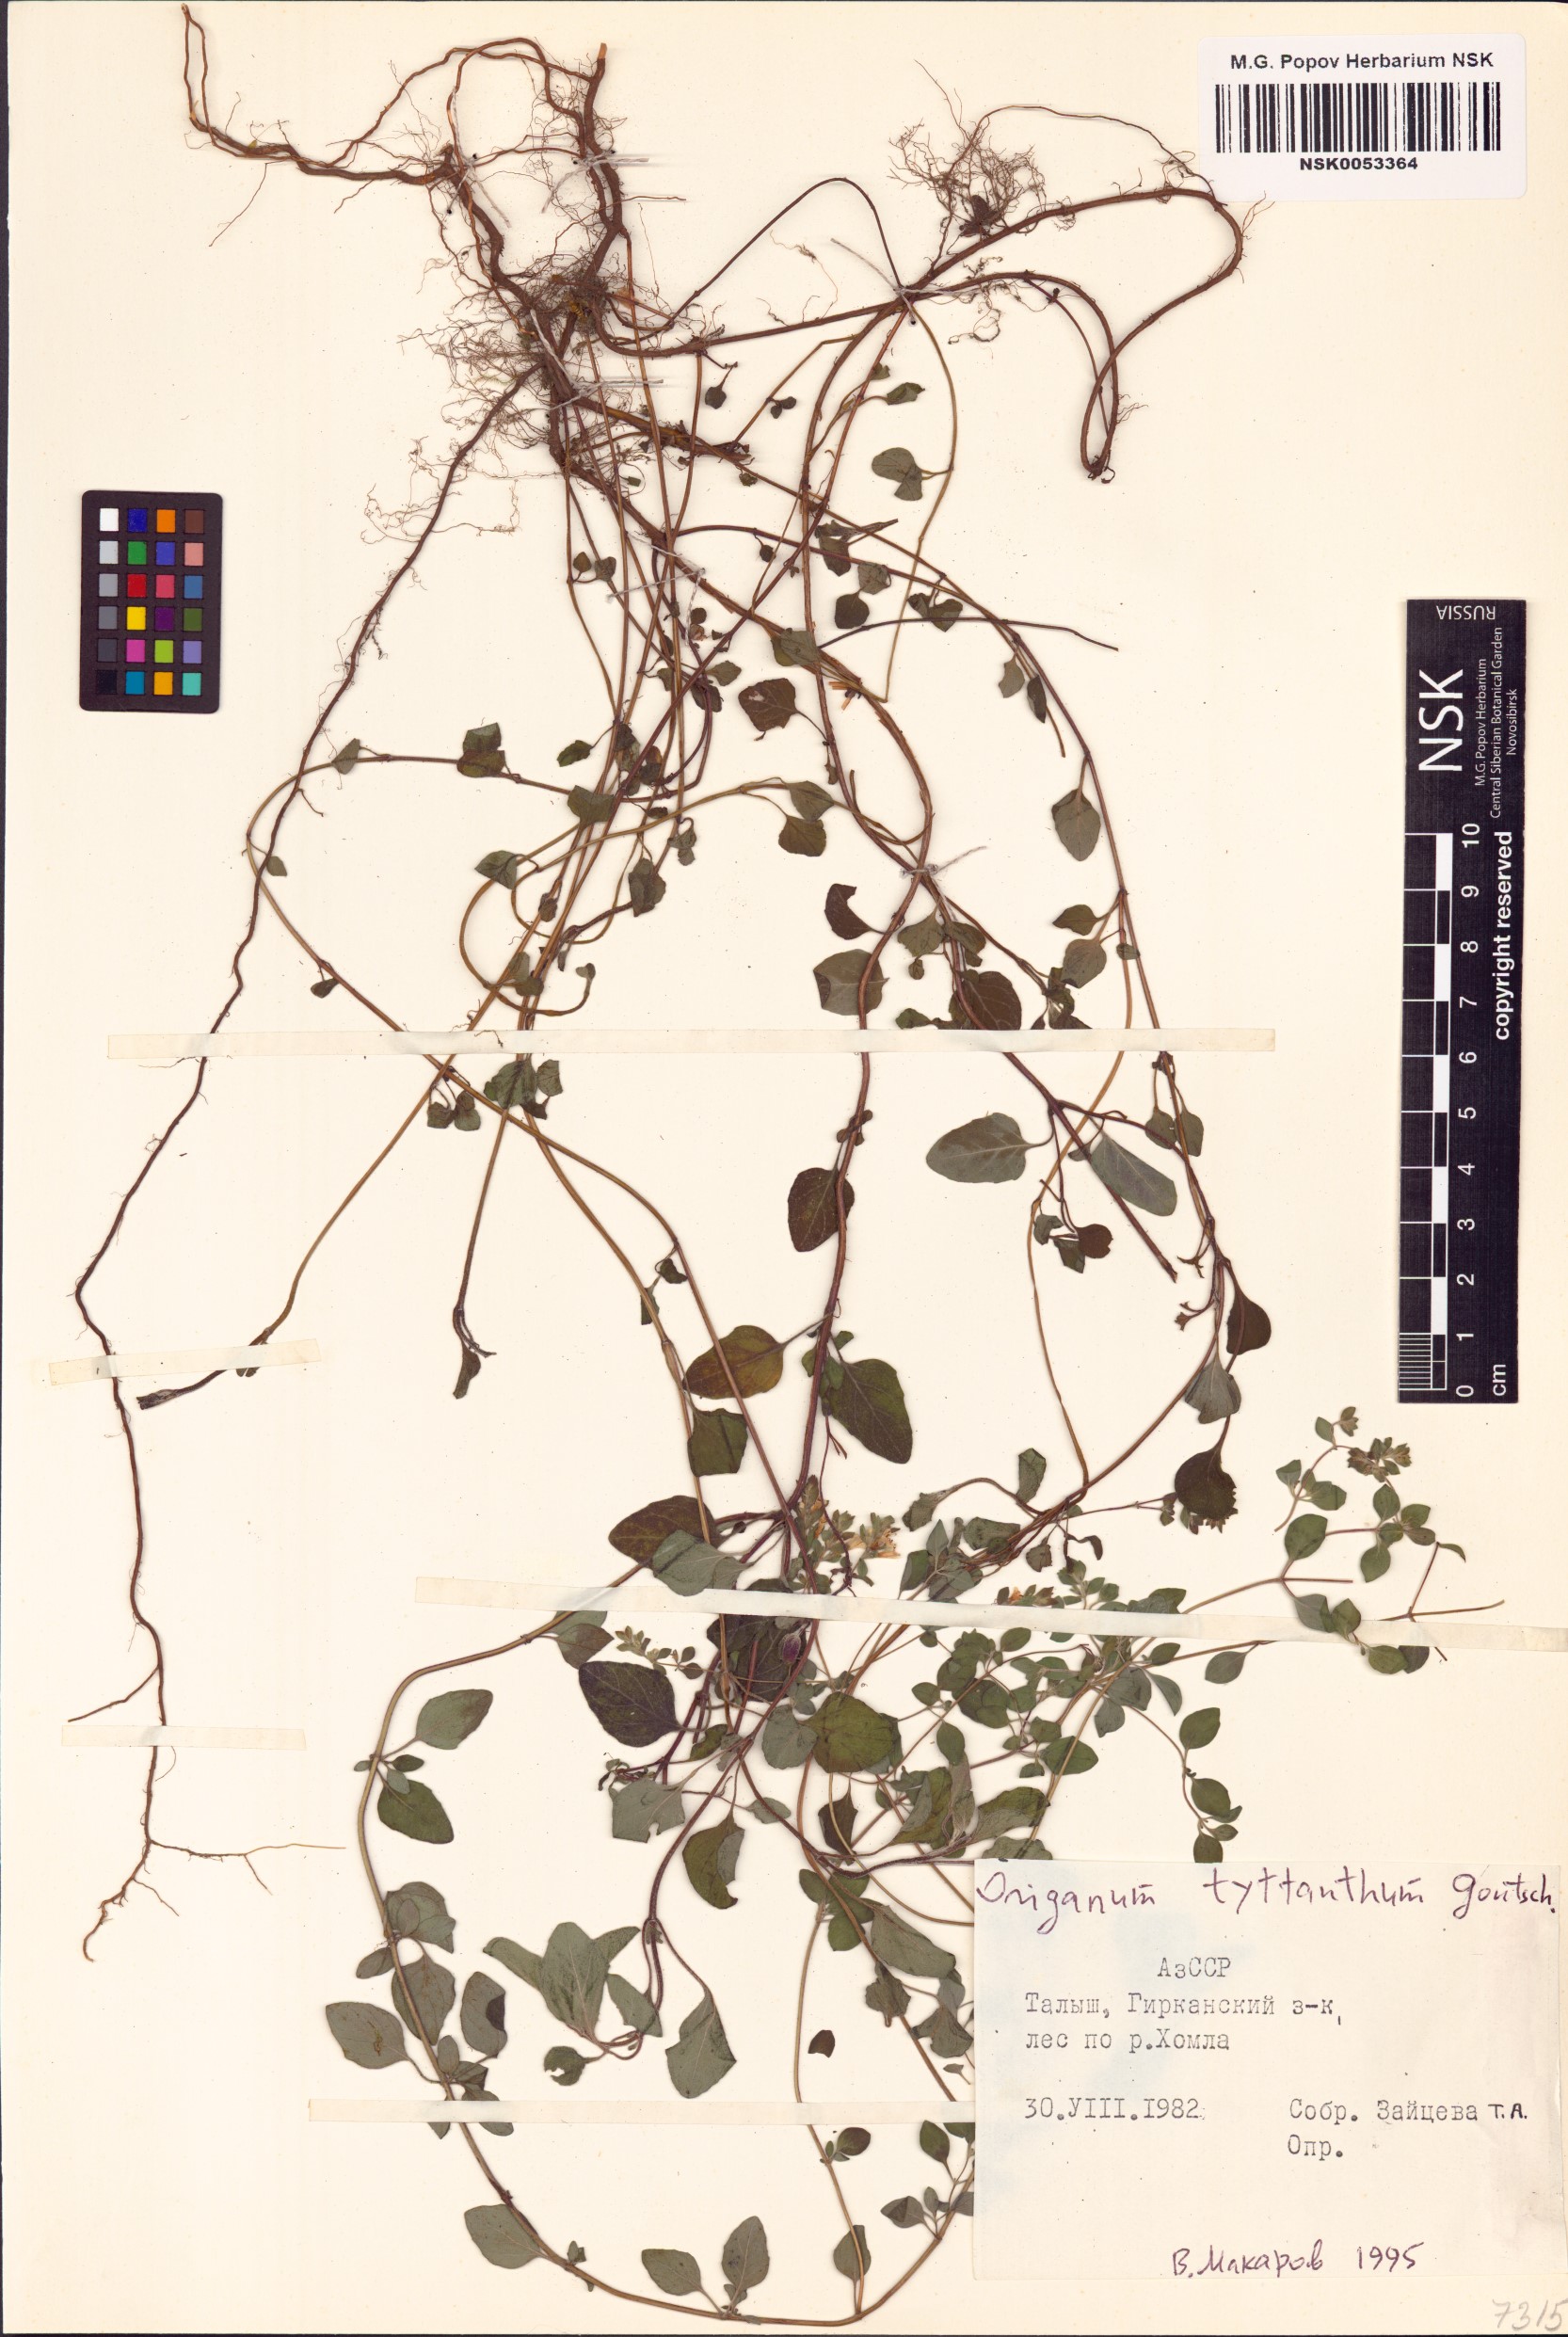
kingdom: Plantae
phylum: Tracheophyta
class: Magnoliopsida
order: Lamiales
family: Lamiaceae
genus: Origanum
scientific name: Origanum vulgare
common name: Wild marjoram
